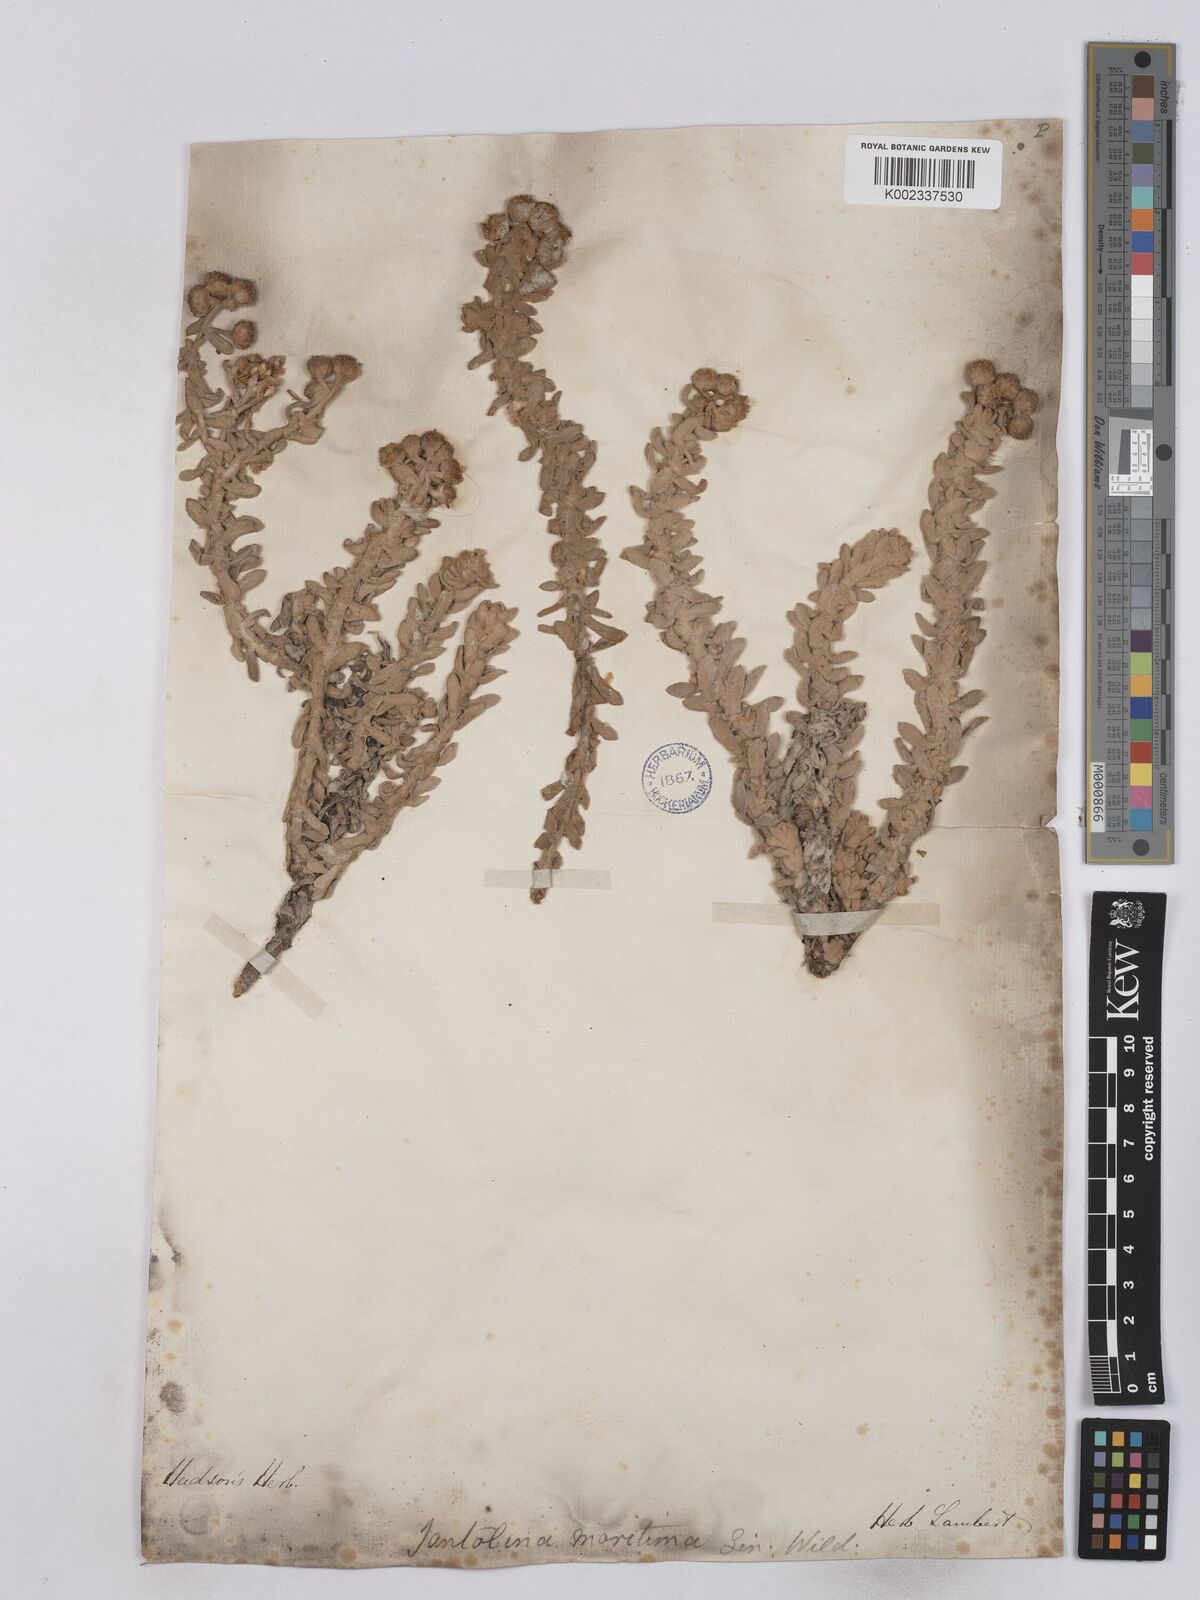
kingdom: Plantae
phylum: Tracheophyta
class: Magnoliopsida
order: Asterales
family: Asteraceae
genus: Achillea
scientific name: Achillea maritima
